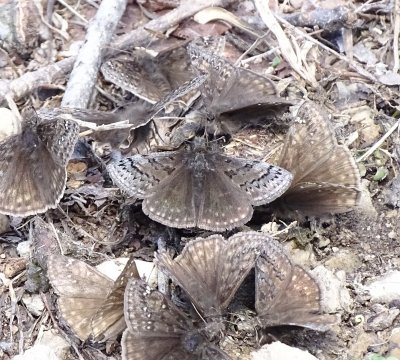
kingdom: Animalia
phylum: Arthropoda
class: Insecta
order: Lepidoptera
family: Hesperiidae
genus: Erynnis
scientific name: Erynnis brizo
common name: Sleepy Duskywing
